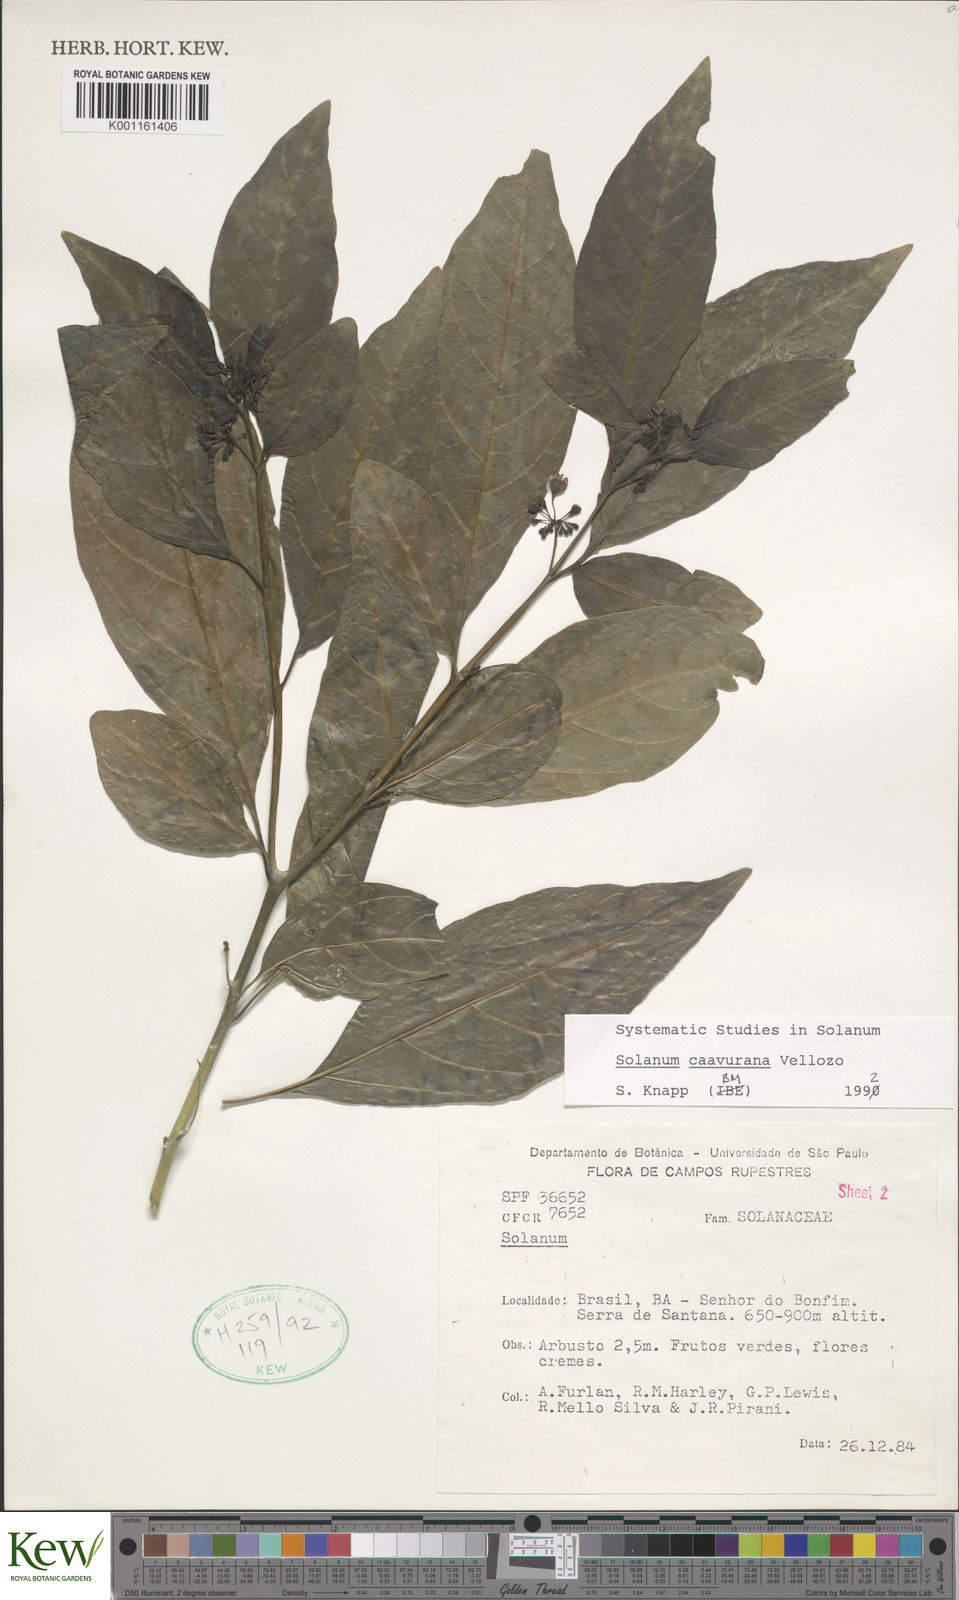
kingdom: Plantae
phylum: Tracheophyta
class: Magnoliopsida
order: Solanales
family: Solanaceae
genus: Solanum
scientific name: Solanum caavurana
